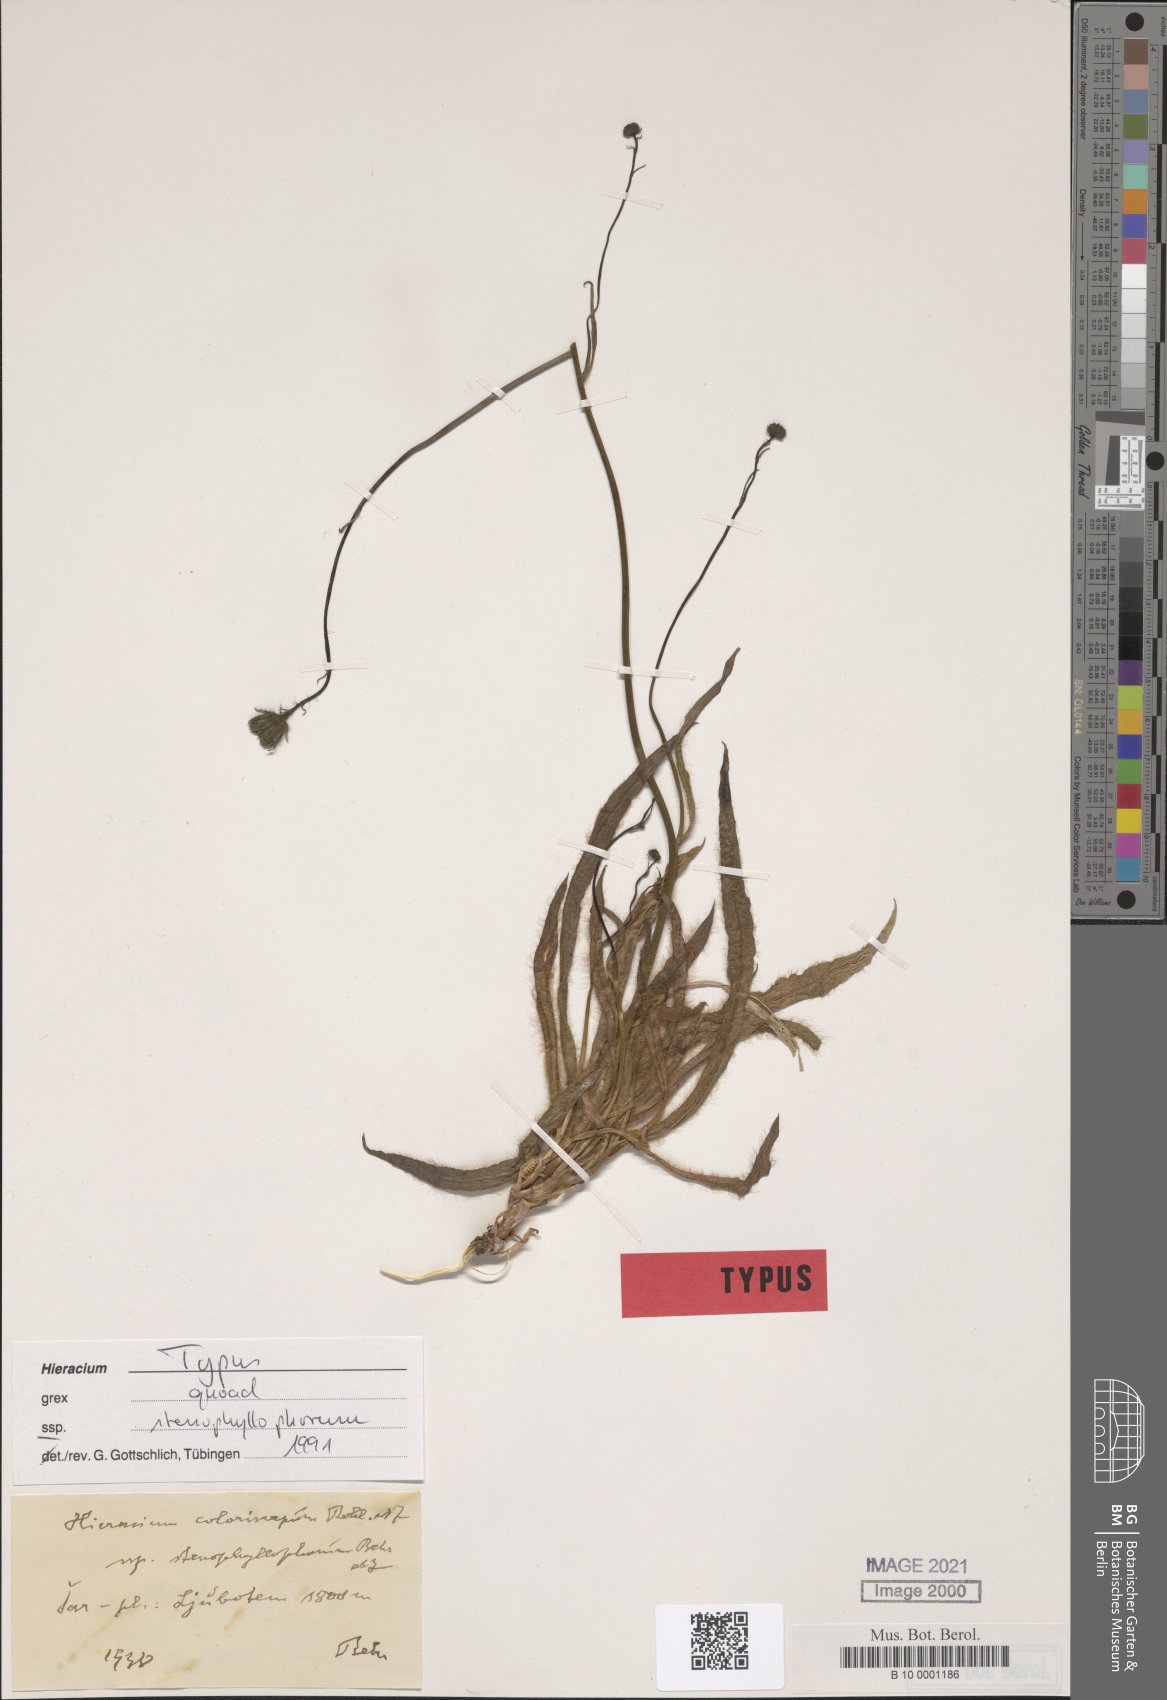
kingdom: Plantae
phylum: Tracheophyta
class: Magnoliopsida
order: Asterales
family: Asteraceae
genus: Hieracium
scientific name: Hieracium coloriscapum
